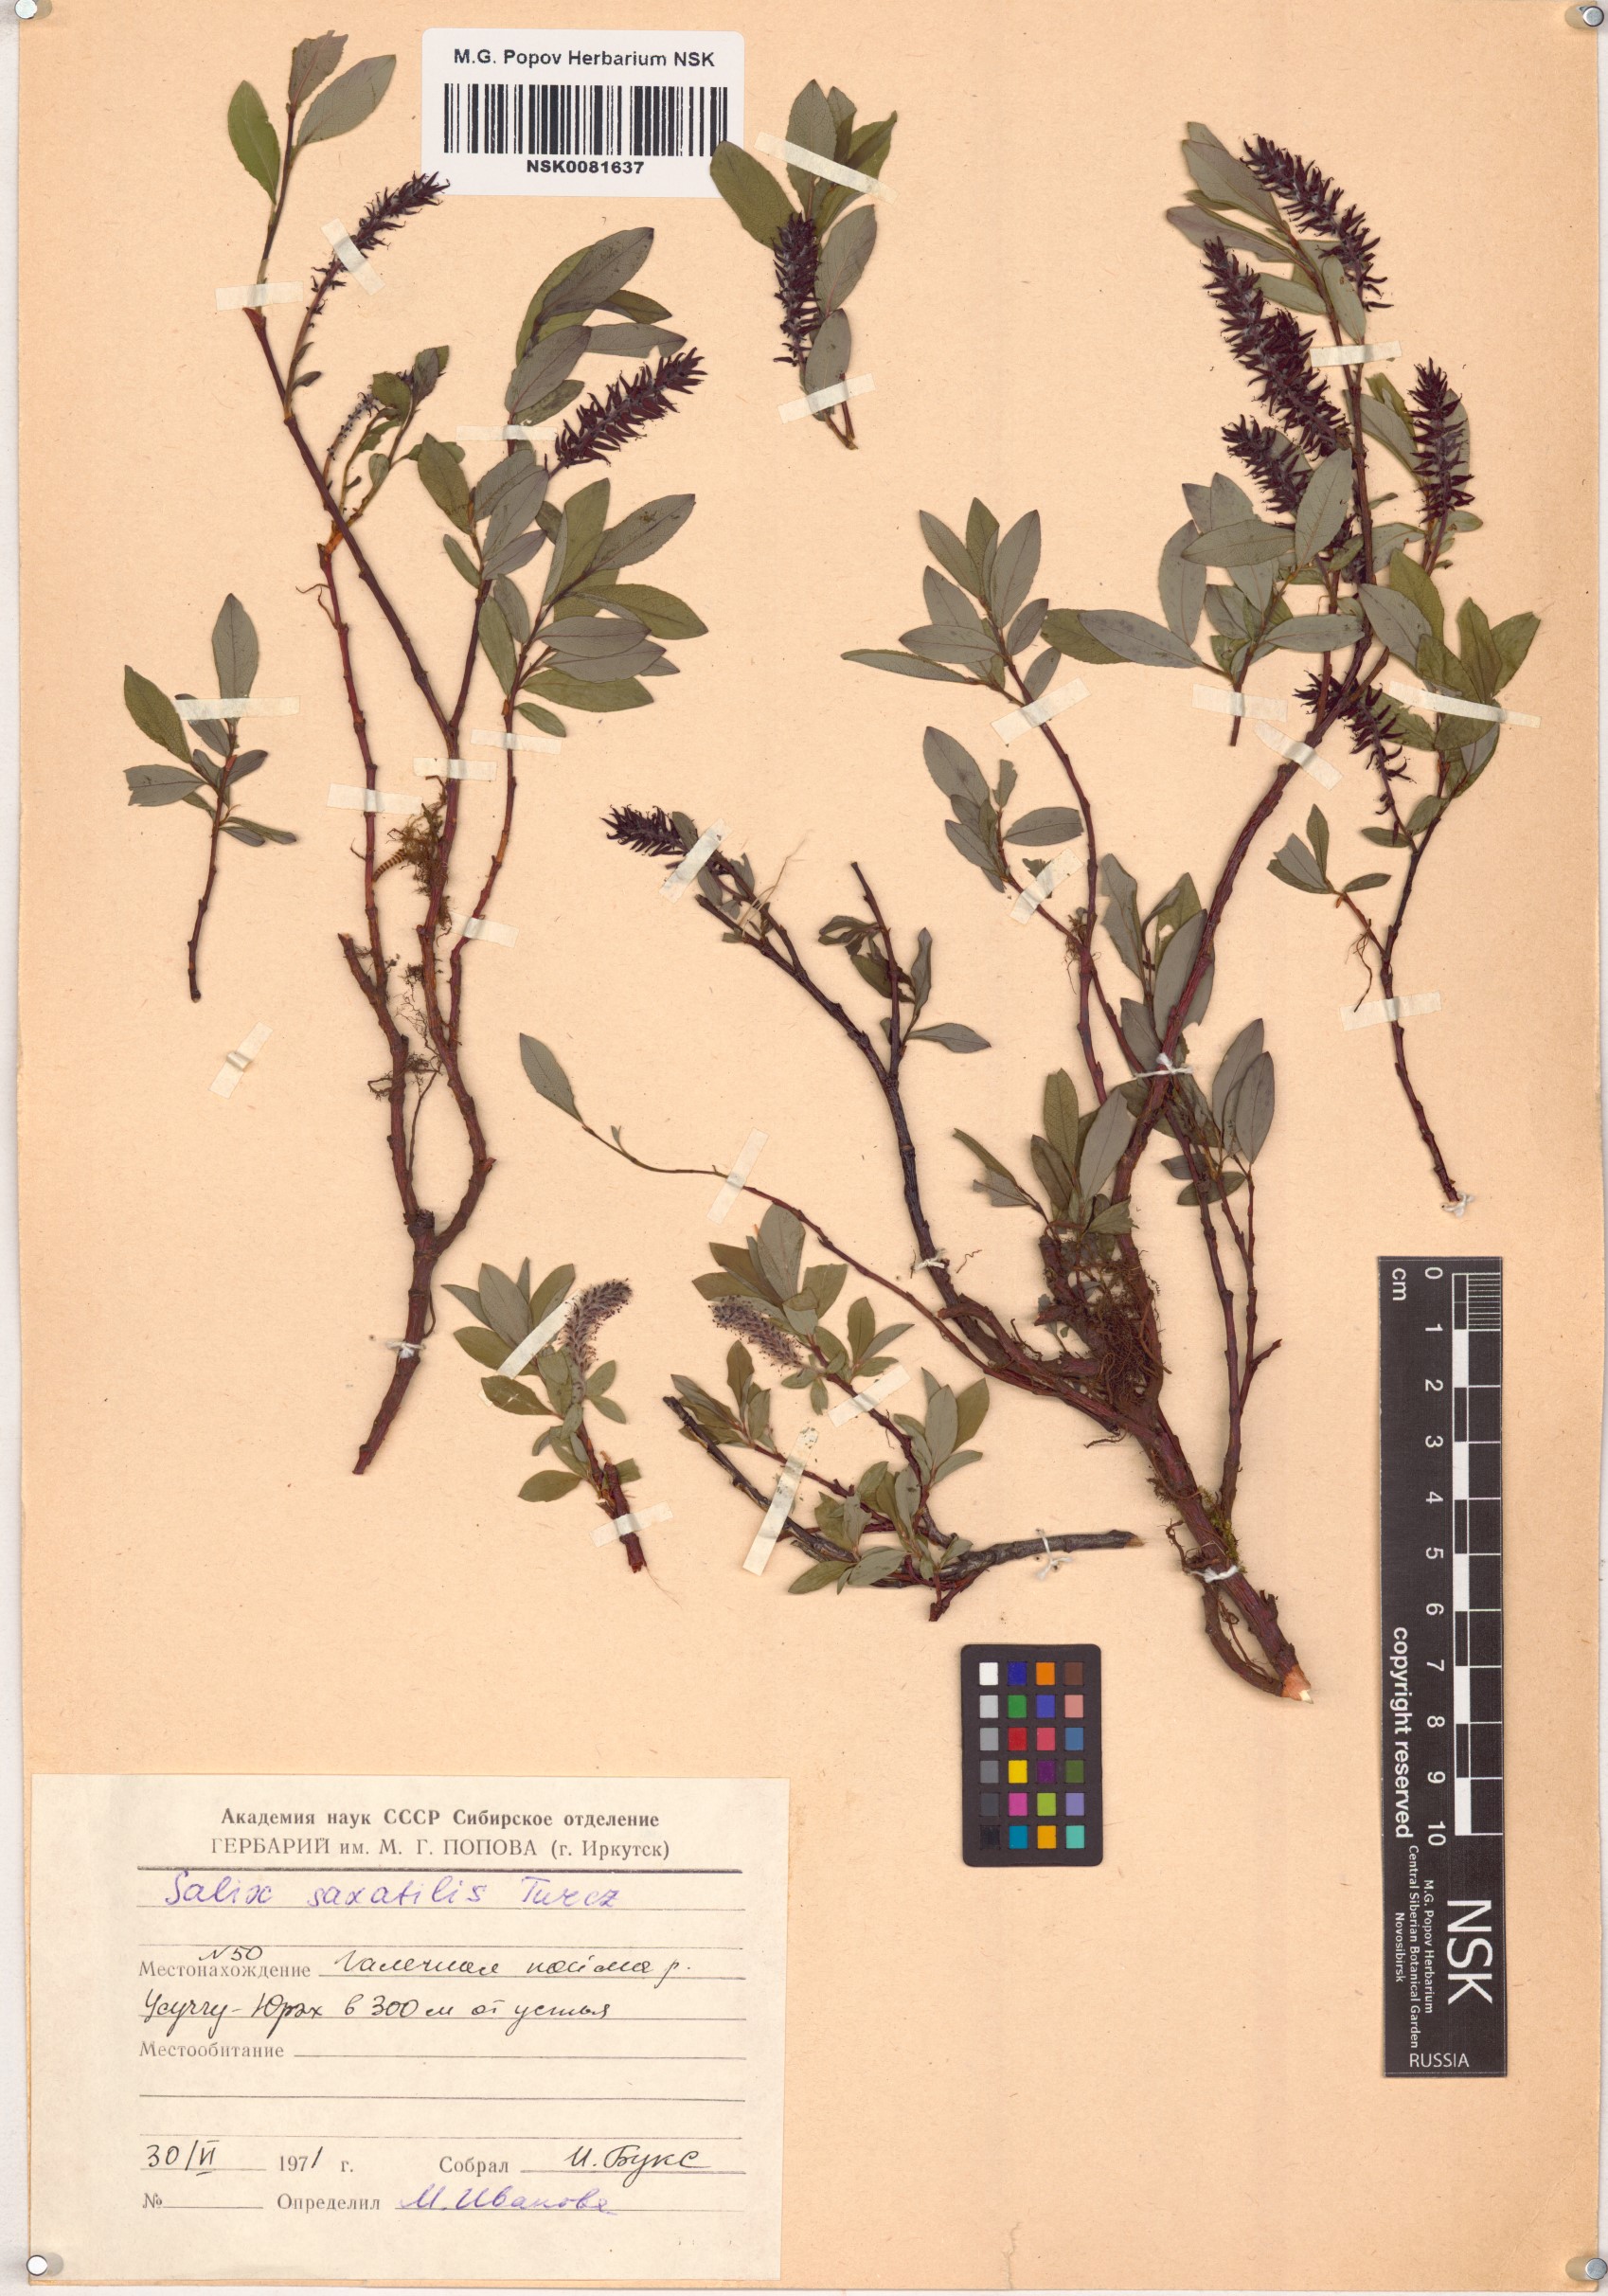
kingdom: Plantae
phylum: Tracheophyta
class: Magnoliopsida
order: Malpighiales
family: Salicaceae
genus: Salix
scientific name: Salix saxatilis
